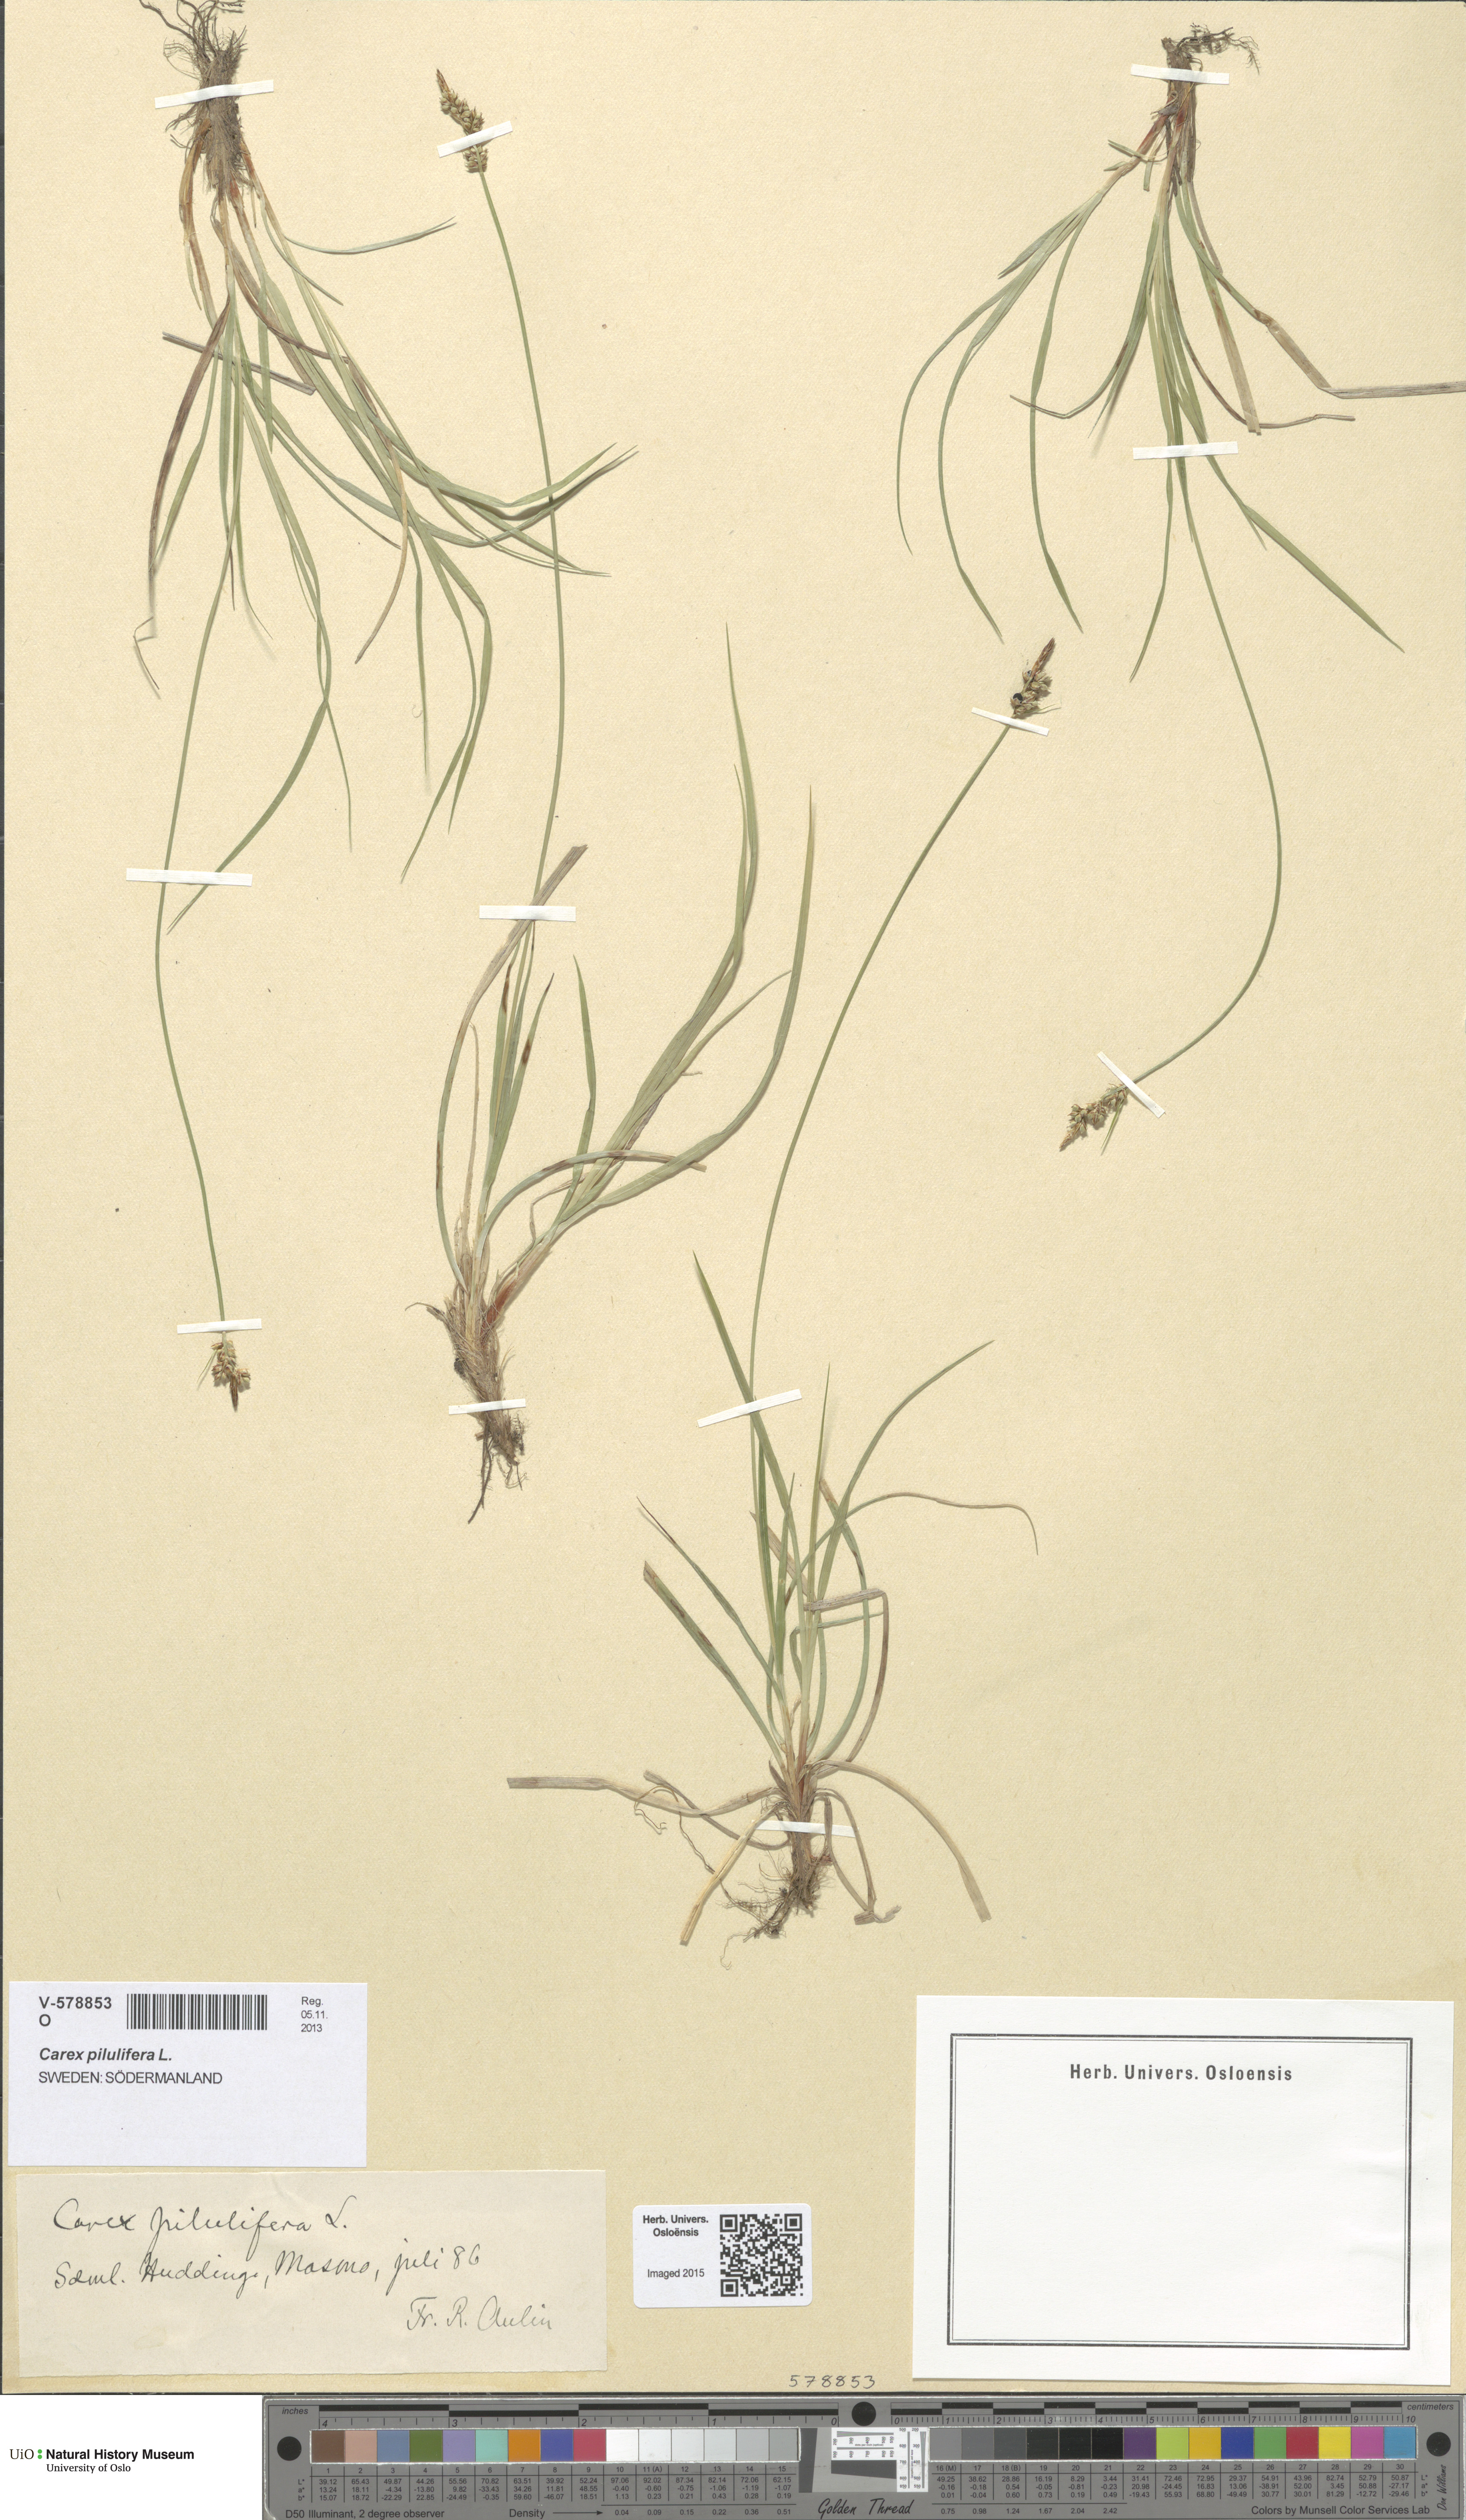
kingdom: Plantae
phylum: Tracheophyta
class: Liliopsida
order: Poales
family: Cyperaceae
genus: Carex
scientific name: Carex pilulifera
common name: Pill sedge
